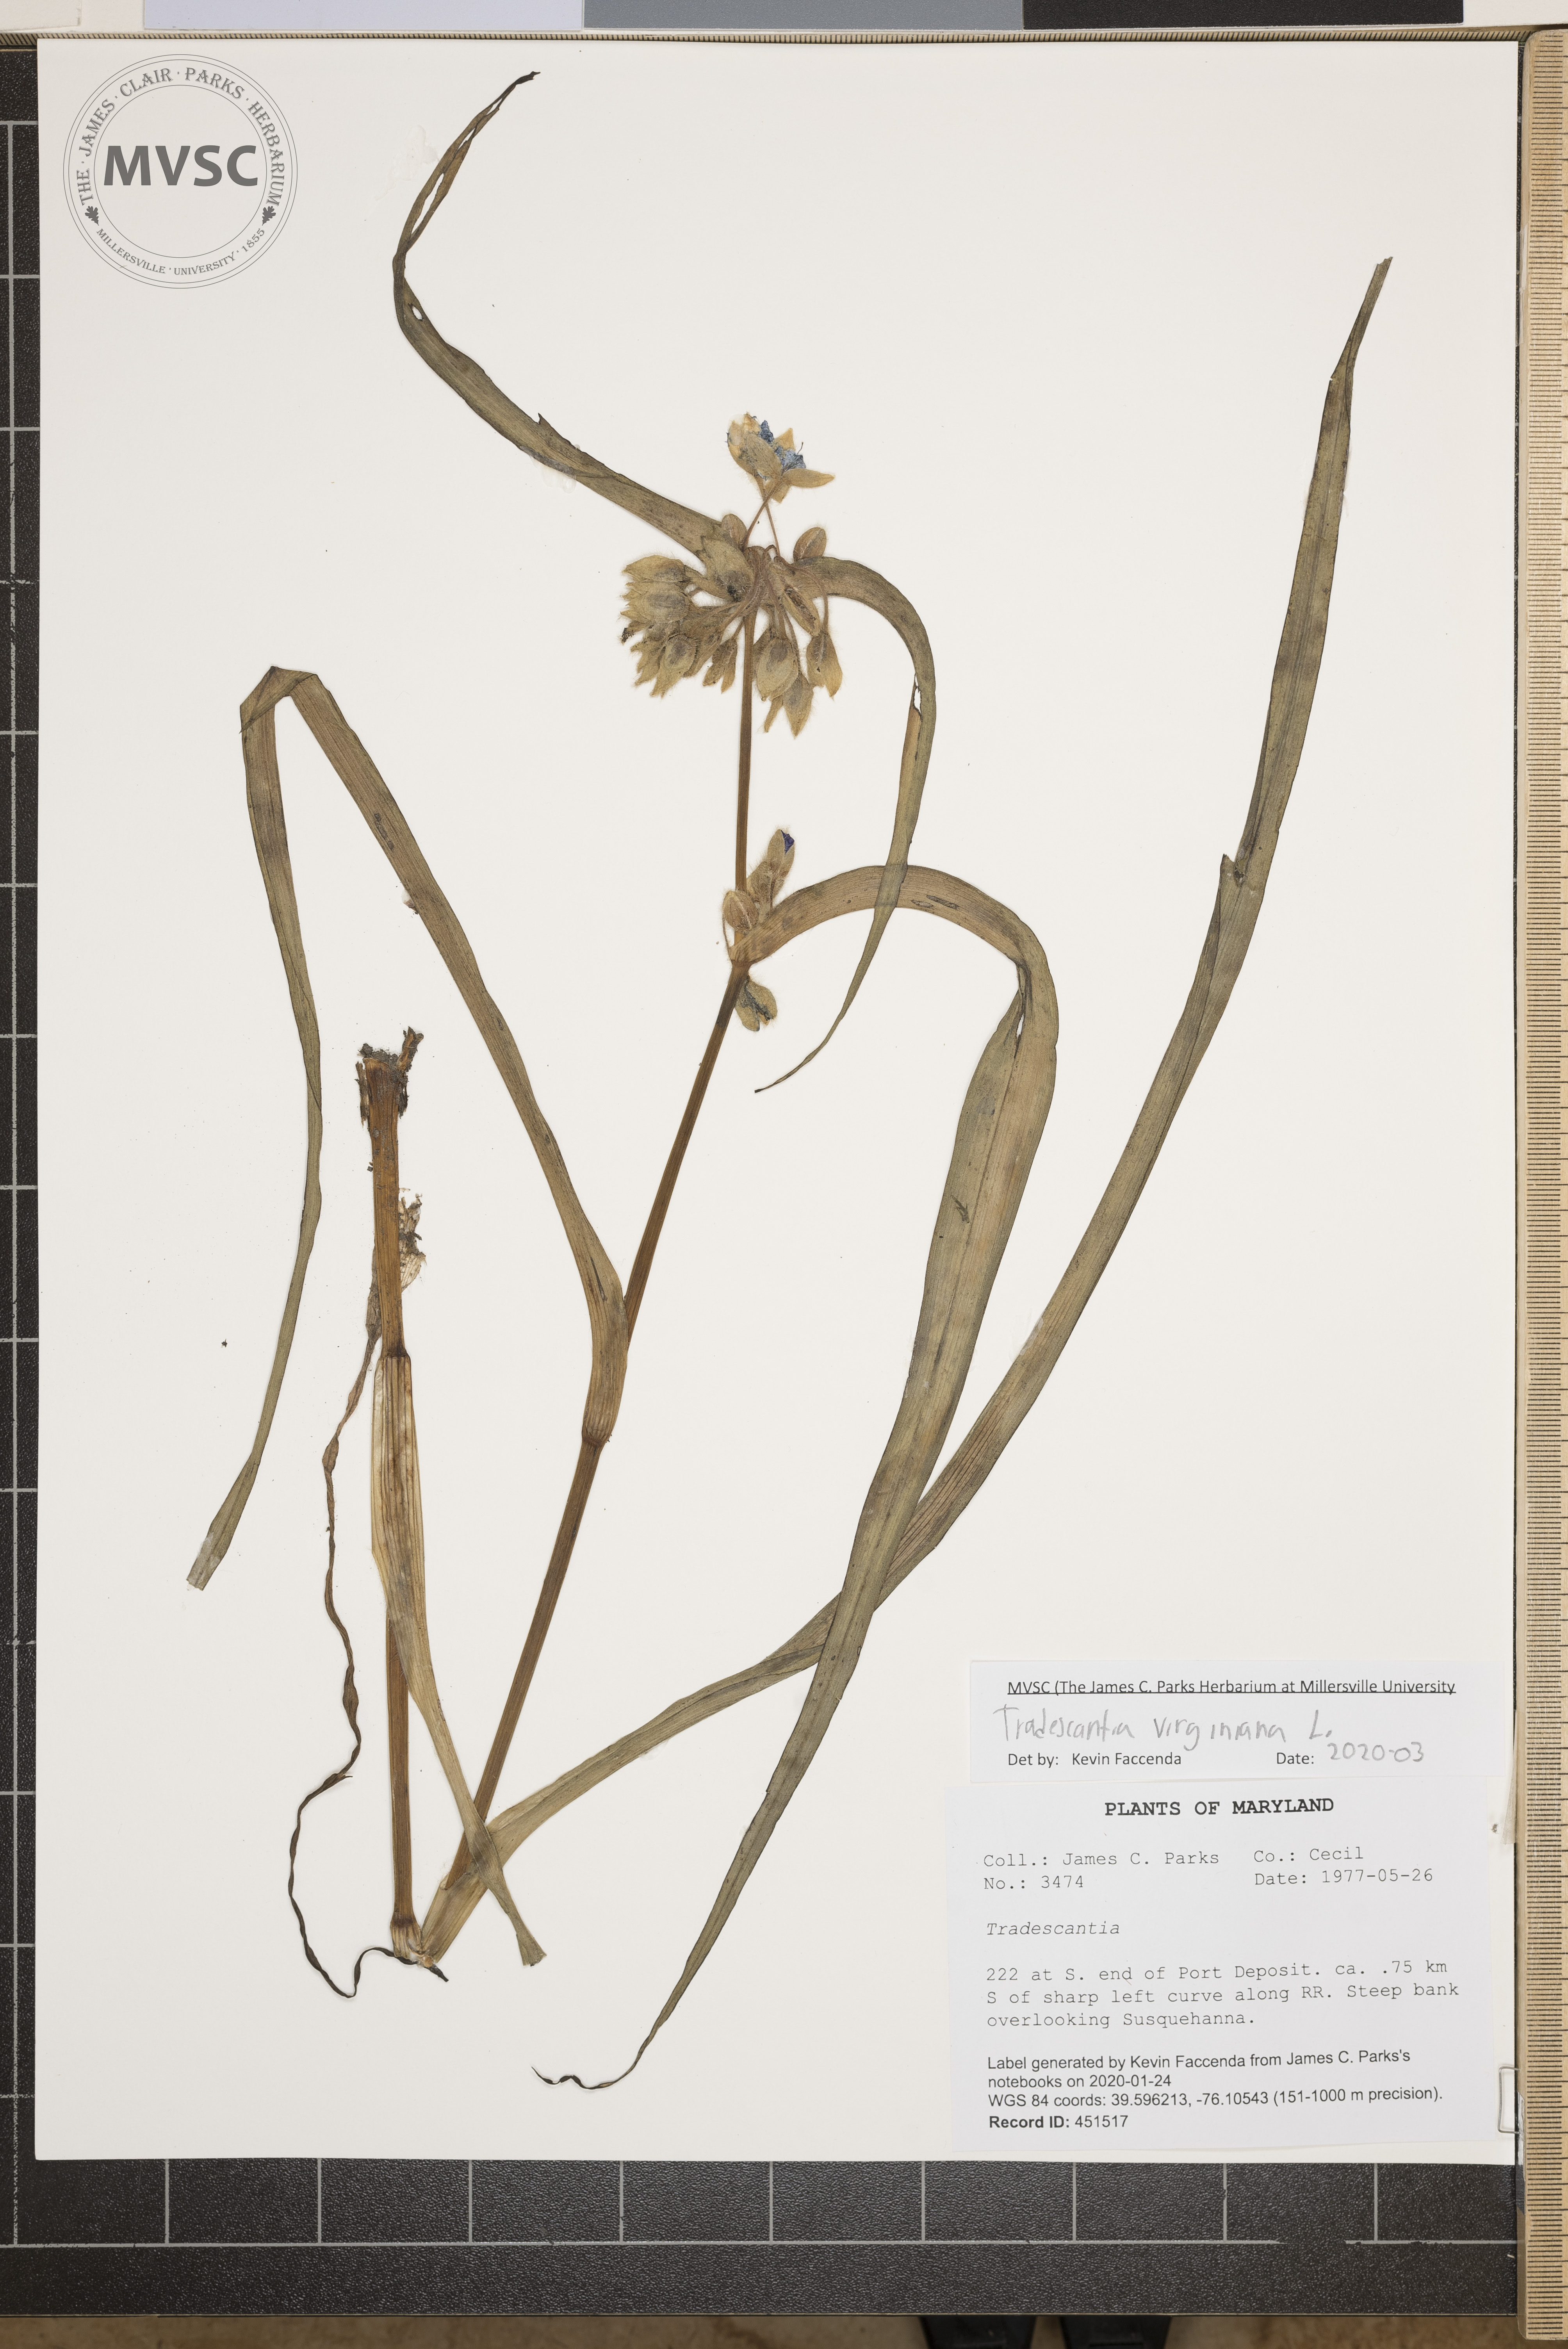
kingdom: Plantae
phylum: Tracheophyta
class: Liliopsida
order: Commelinales
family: Commelinaceae
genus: Tradescantia
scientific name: Tradescantia virginiana
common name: Spiderwort
